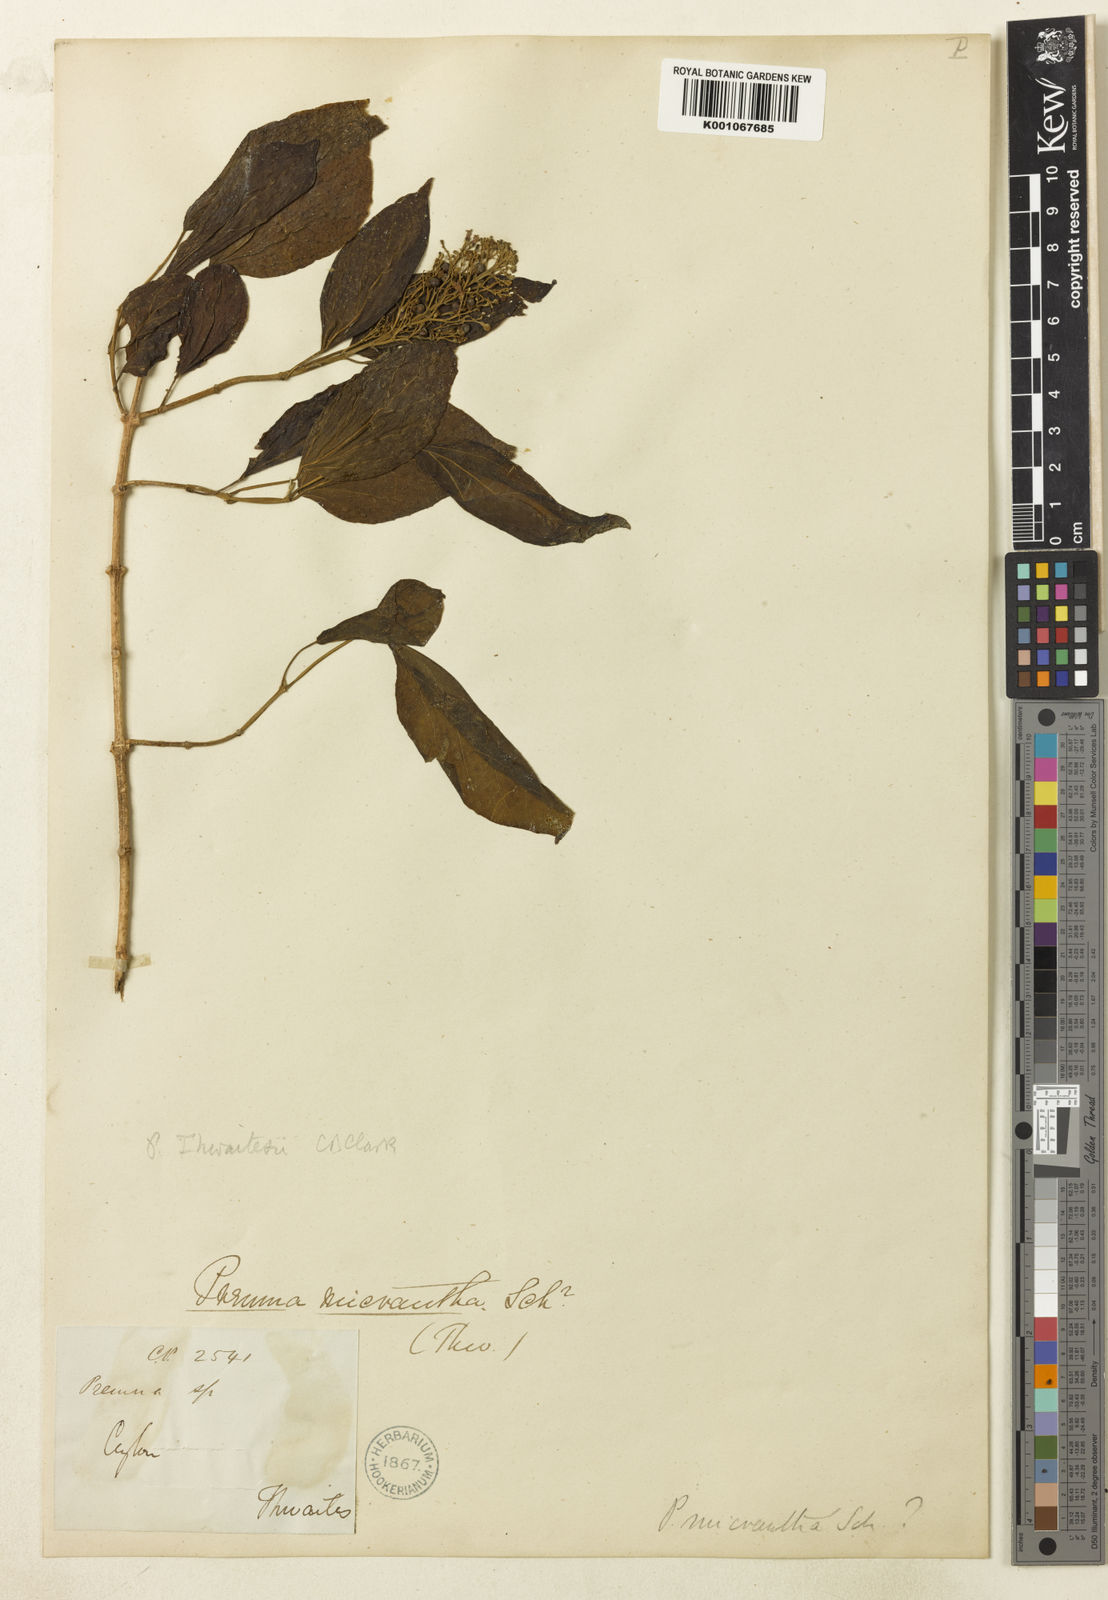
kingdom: Plantae
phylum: Tracheophyta
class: Magnoliopsida
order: Lamiales
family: Lamiaceae
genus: Premna
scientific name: Premna thwaitesii
